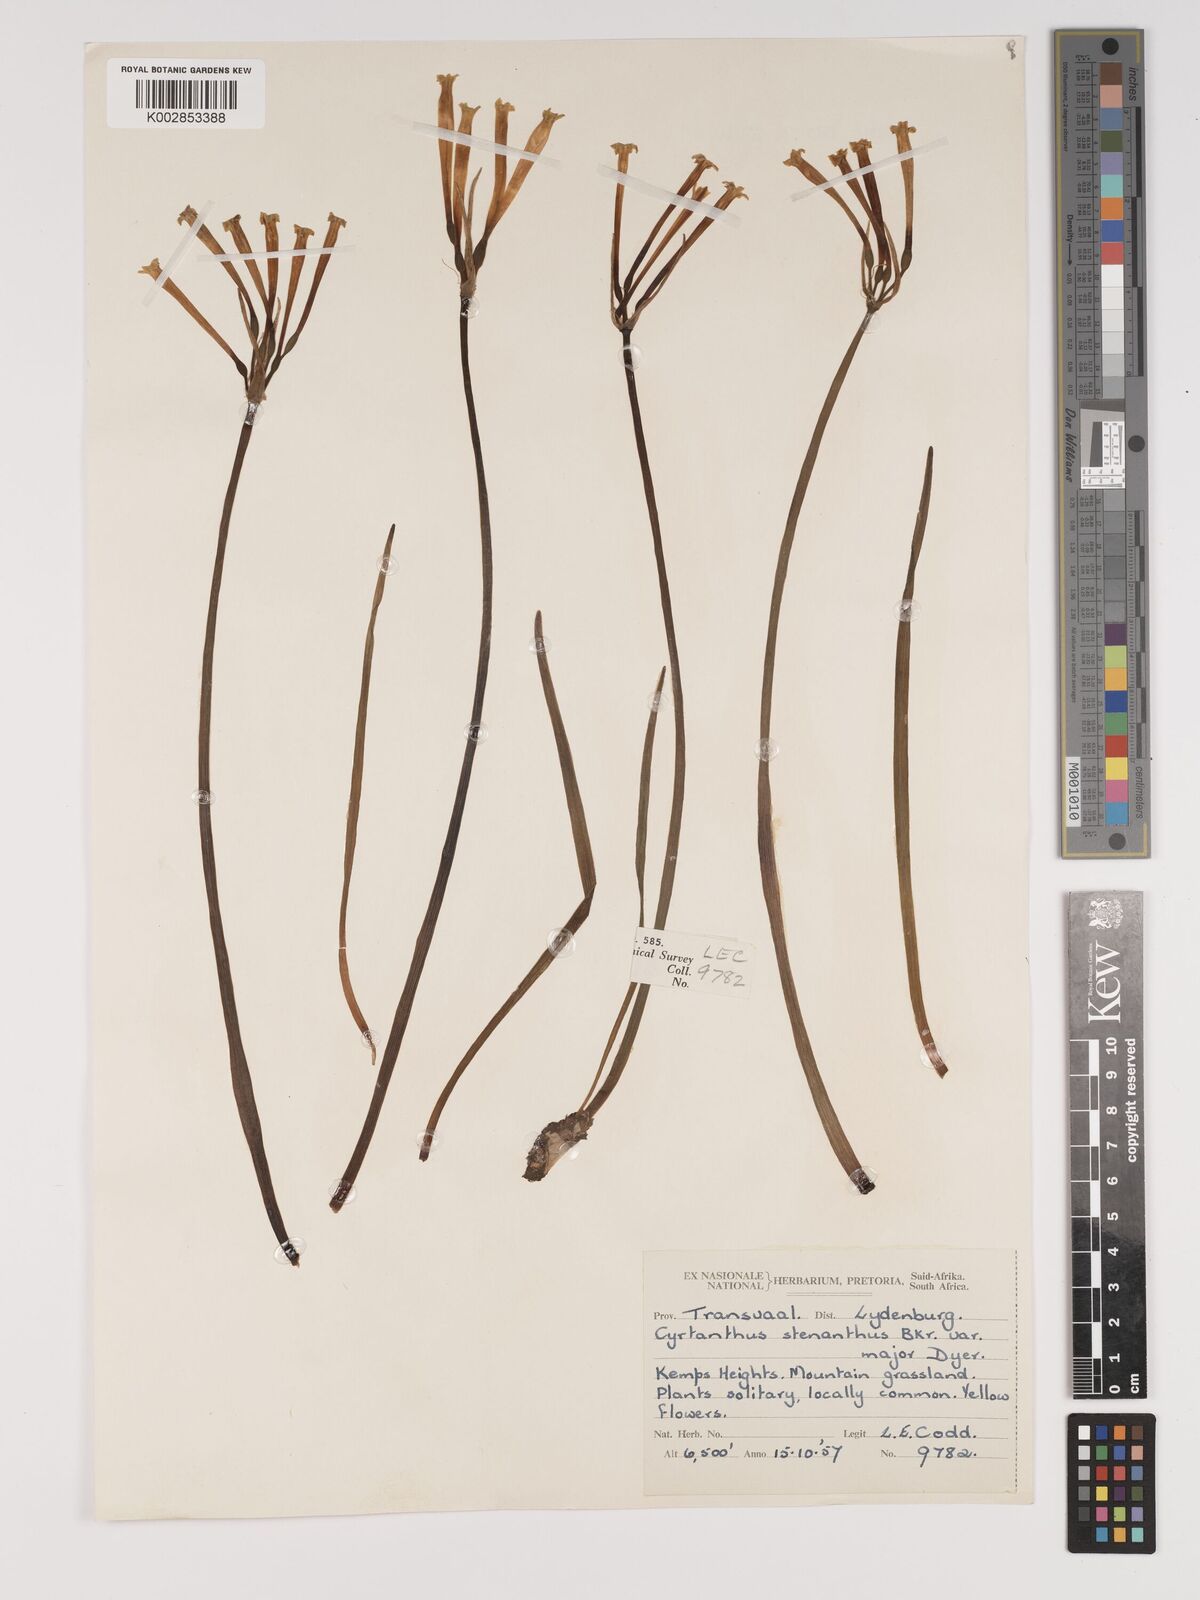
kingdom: Plantae
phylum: Tracheophyta
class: Liliopsida
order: Asparagales
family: Amaryllidaceae
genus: Cyrtanthus
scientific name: Cyrtanthus stenanthus
